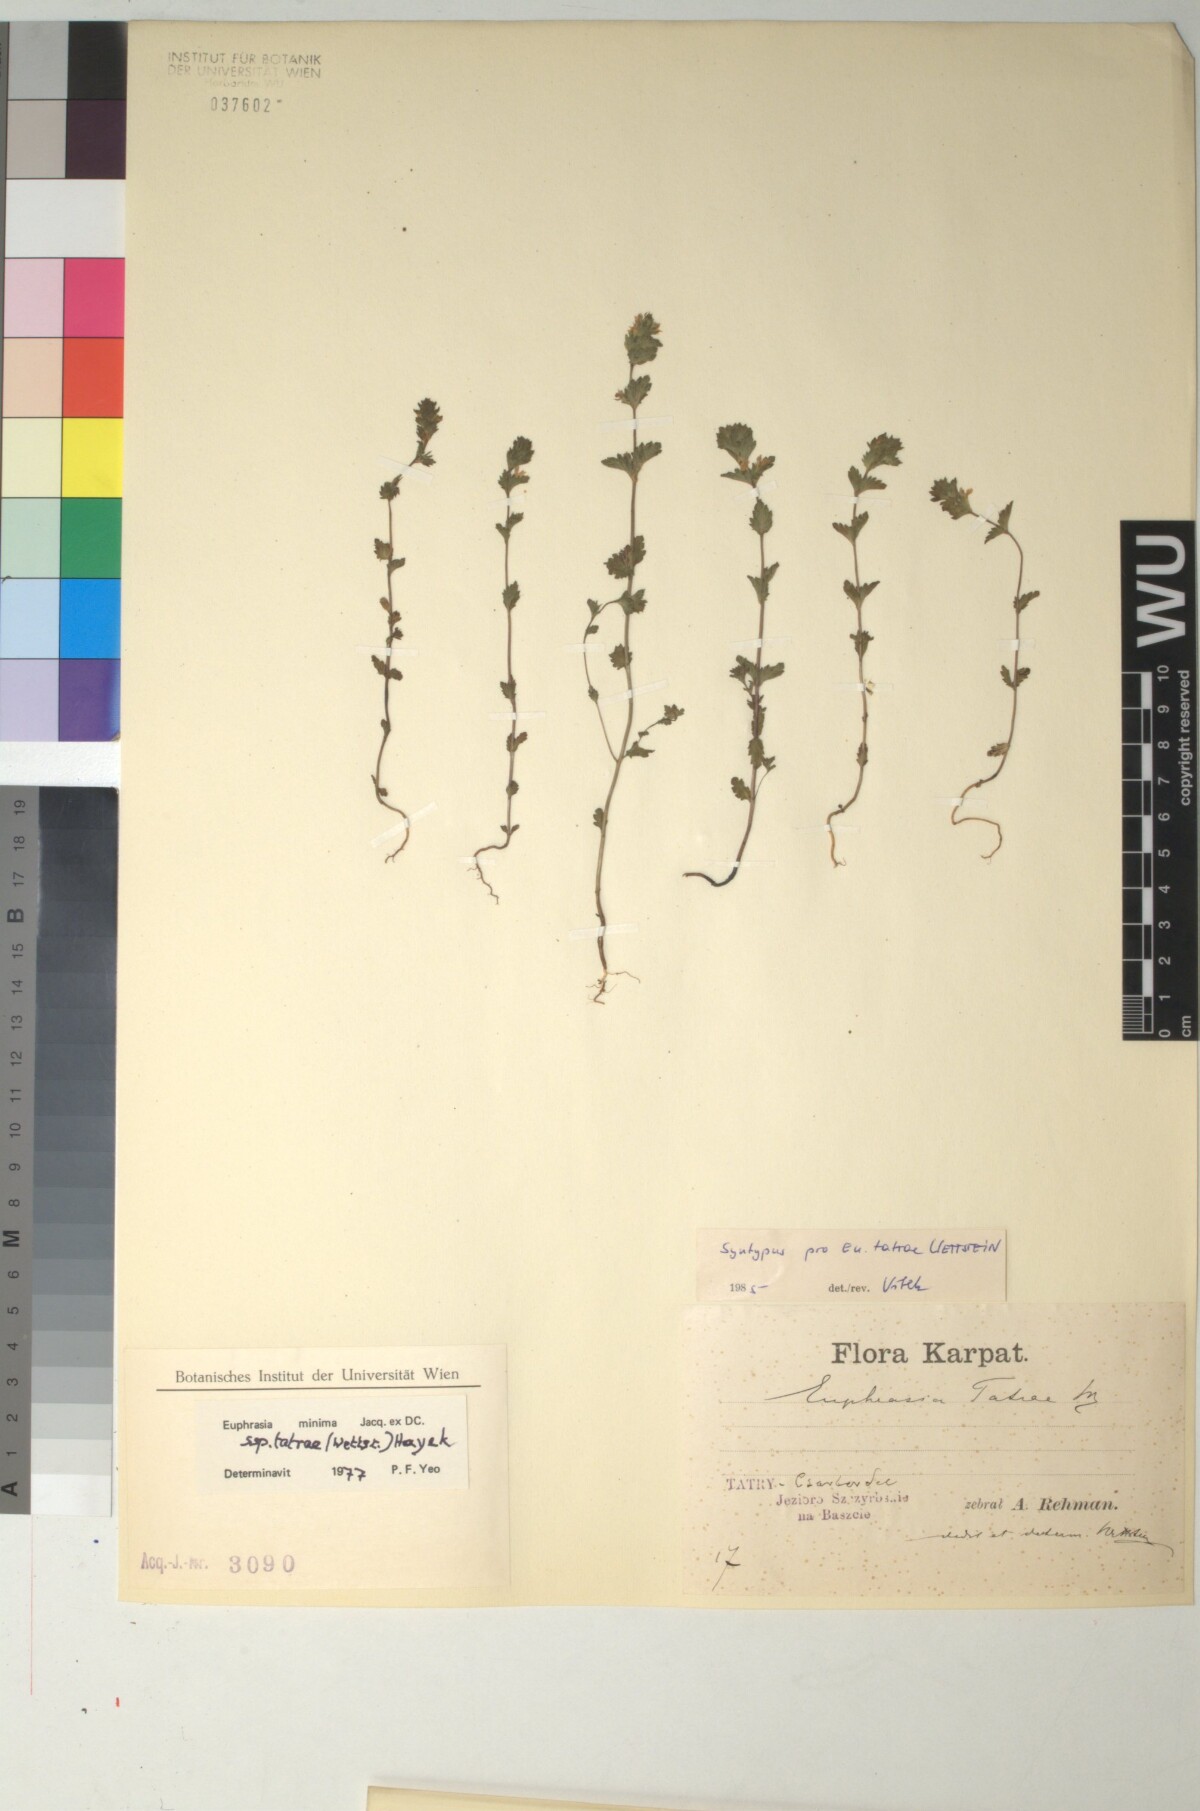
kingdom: Plantae
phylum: Tracheophyta
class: Magnoliopsida
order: Lamiales
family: Orobanchaceae
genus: Euphrasia
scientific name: Euphrasia tatrae
